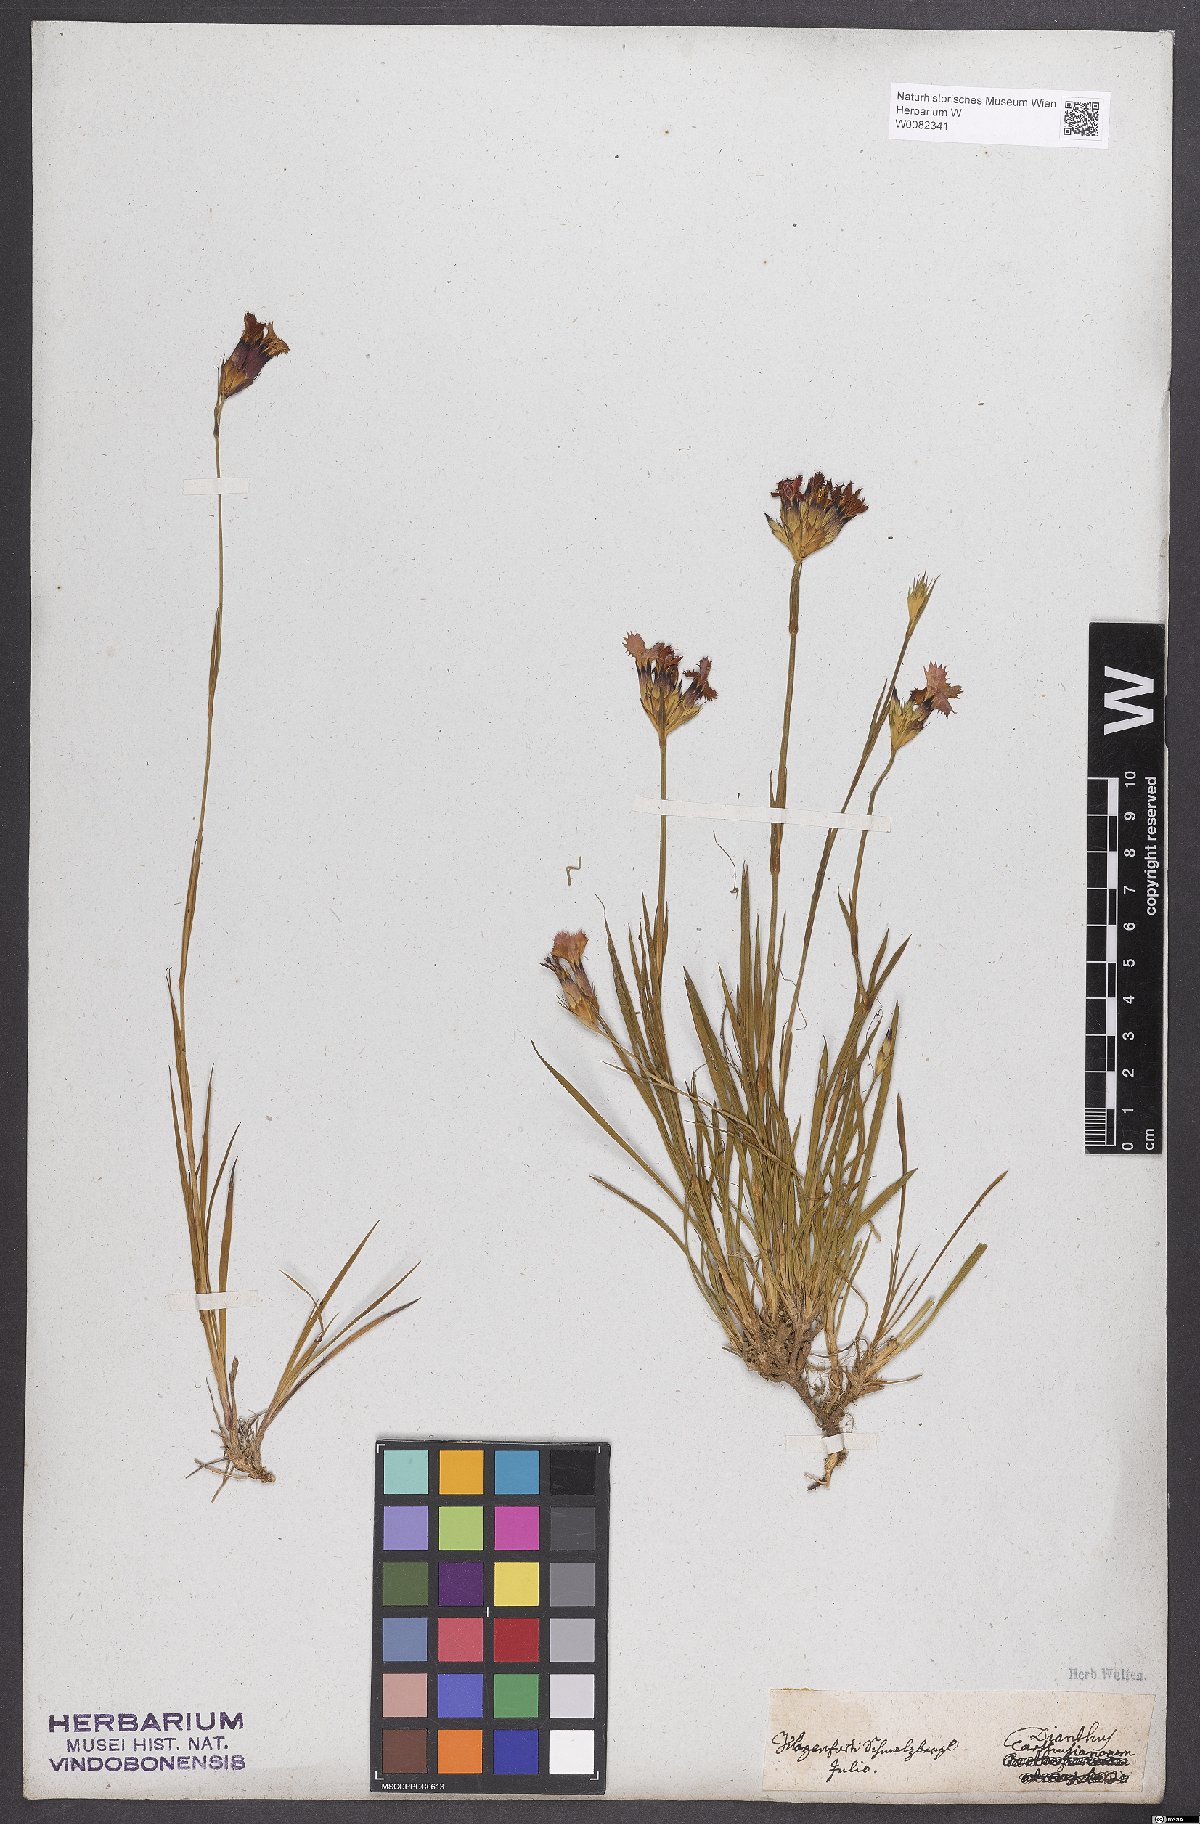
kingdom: Plantae
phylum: Tracheophyta
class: Magnoliopsida
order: Caryophyllales
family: Caryophyllaceae
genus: Dianthus
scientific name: Dianthus carthusianorum
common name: Carthusian pink
